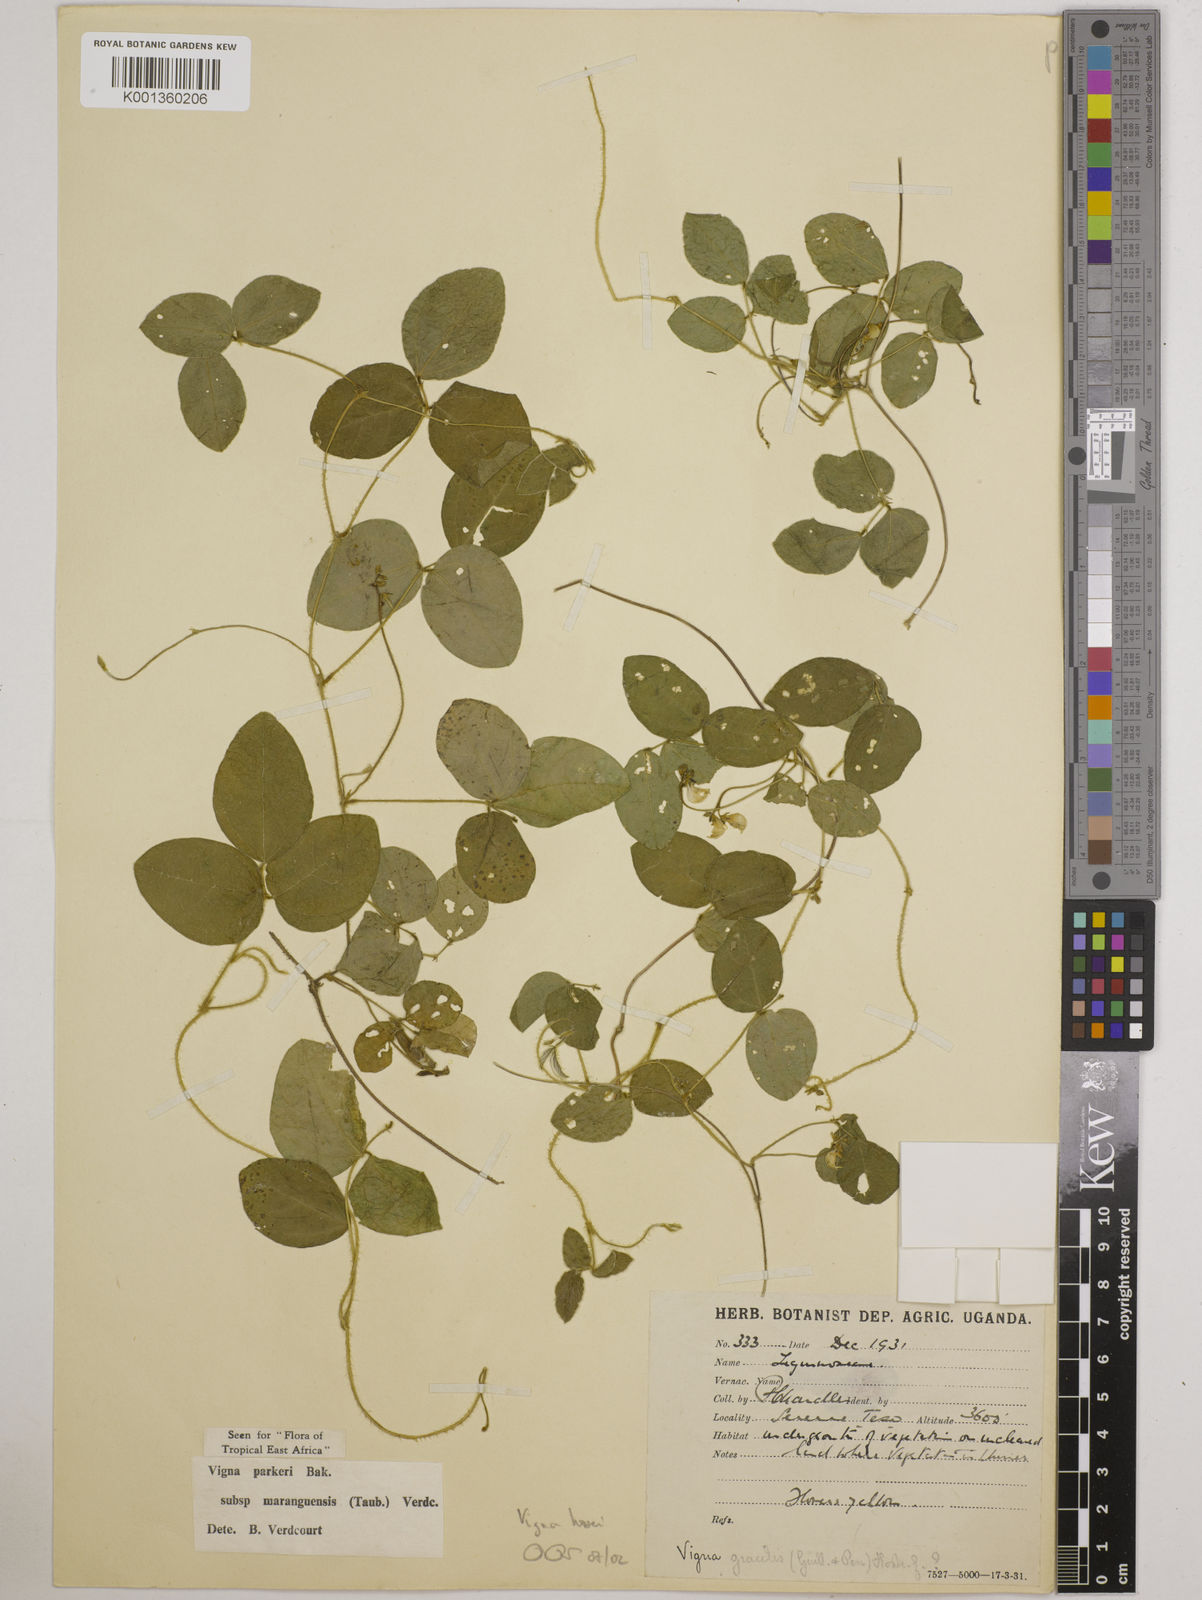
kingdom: Plantae
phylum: Tracheophyta
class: Magnoliopsida
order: Fabales
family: Fabaceae
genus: Vigna
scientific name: Vigna hosei
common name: Sarawak-bean
